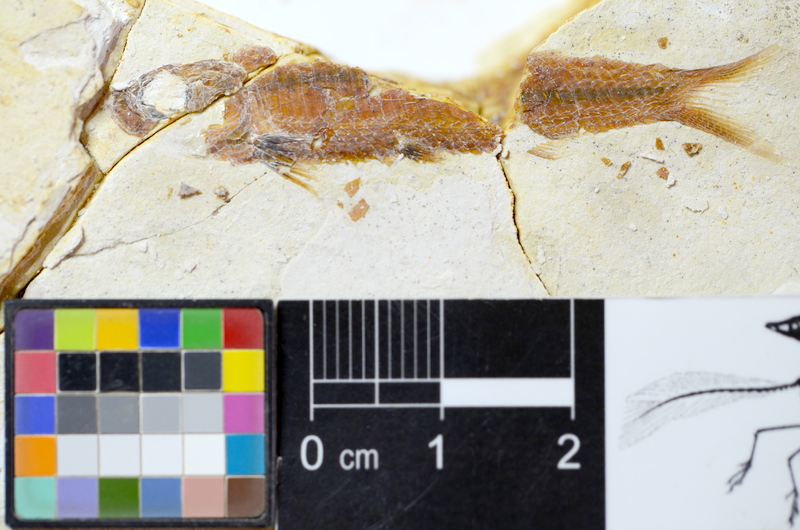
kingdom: Animalia
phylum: Chordata
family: Pleuropholidae
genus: Pleuropholis
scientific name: Pleuropholis
